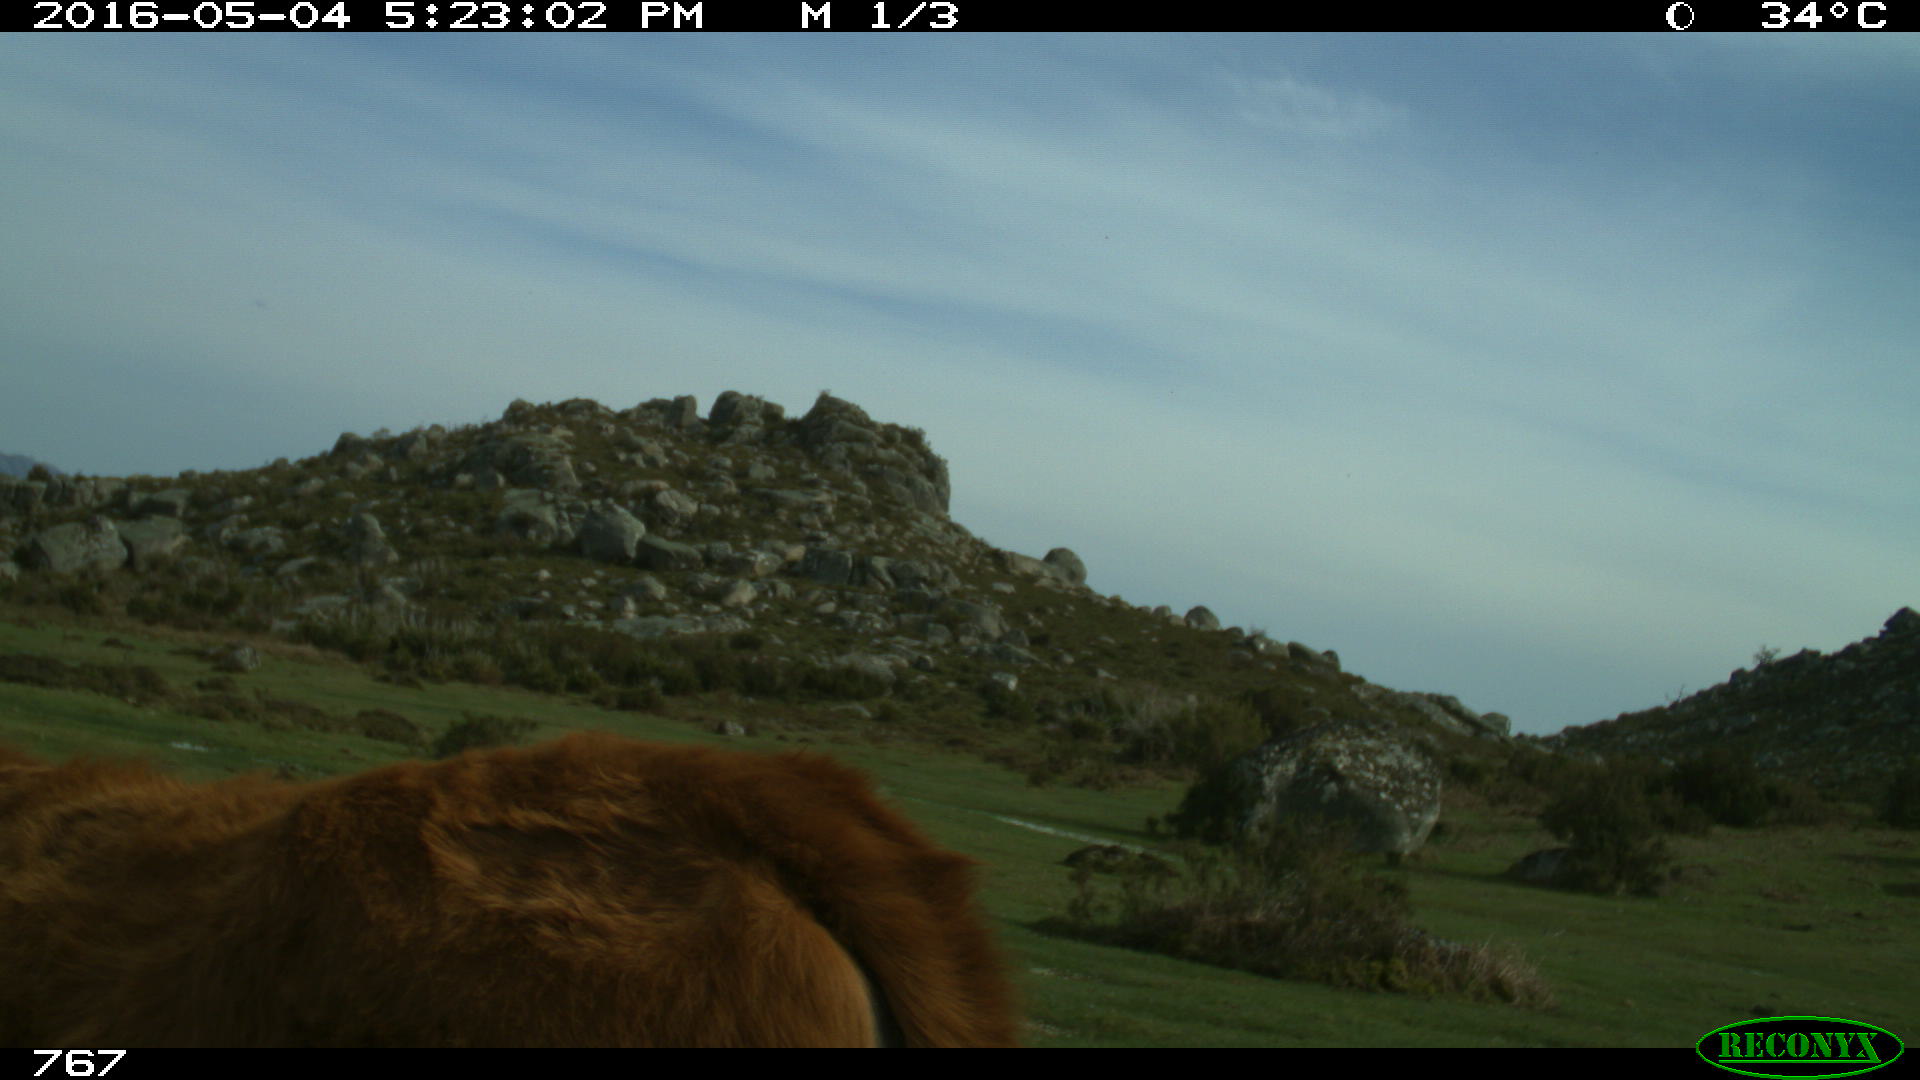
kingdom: Animalia
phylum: Chordata
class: Mammalia
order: Artiodactyla
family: Bovidae
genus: Bos
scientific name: Bos taurus
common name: Domesticated cattle
